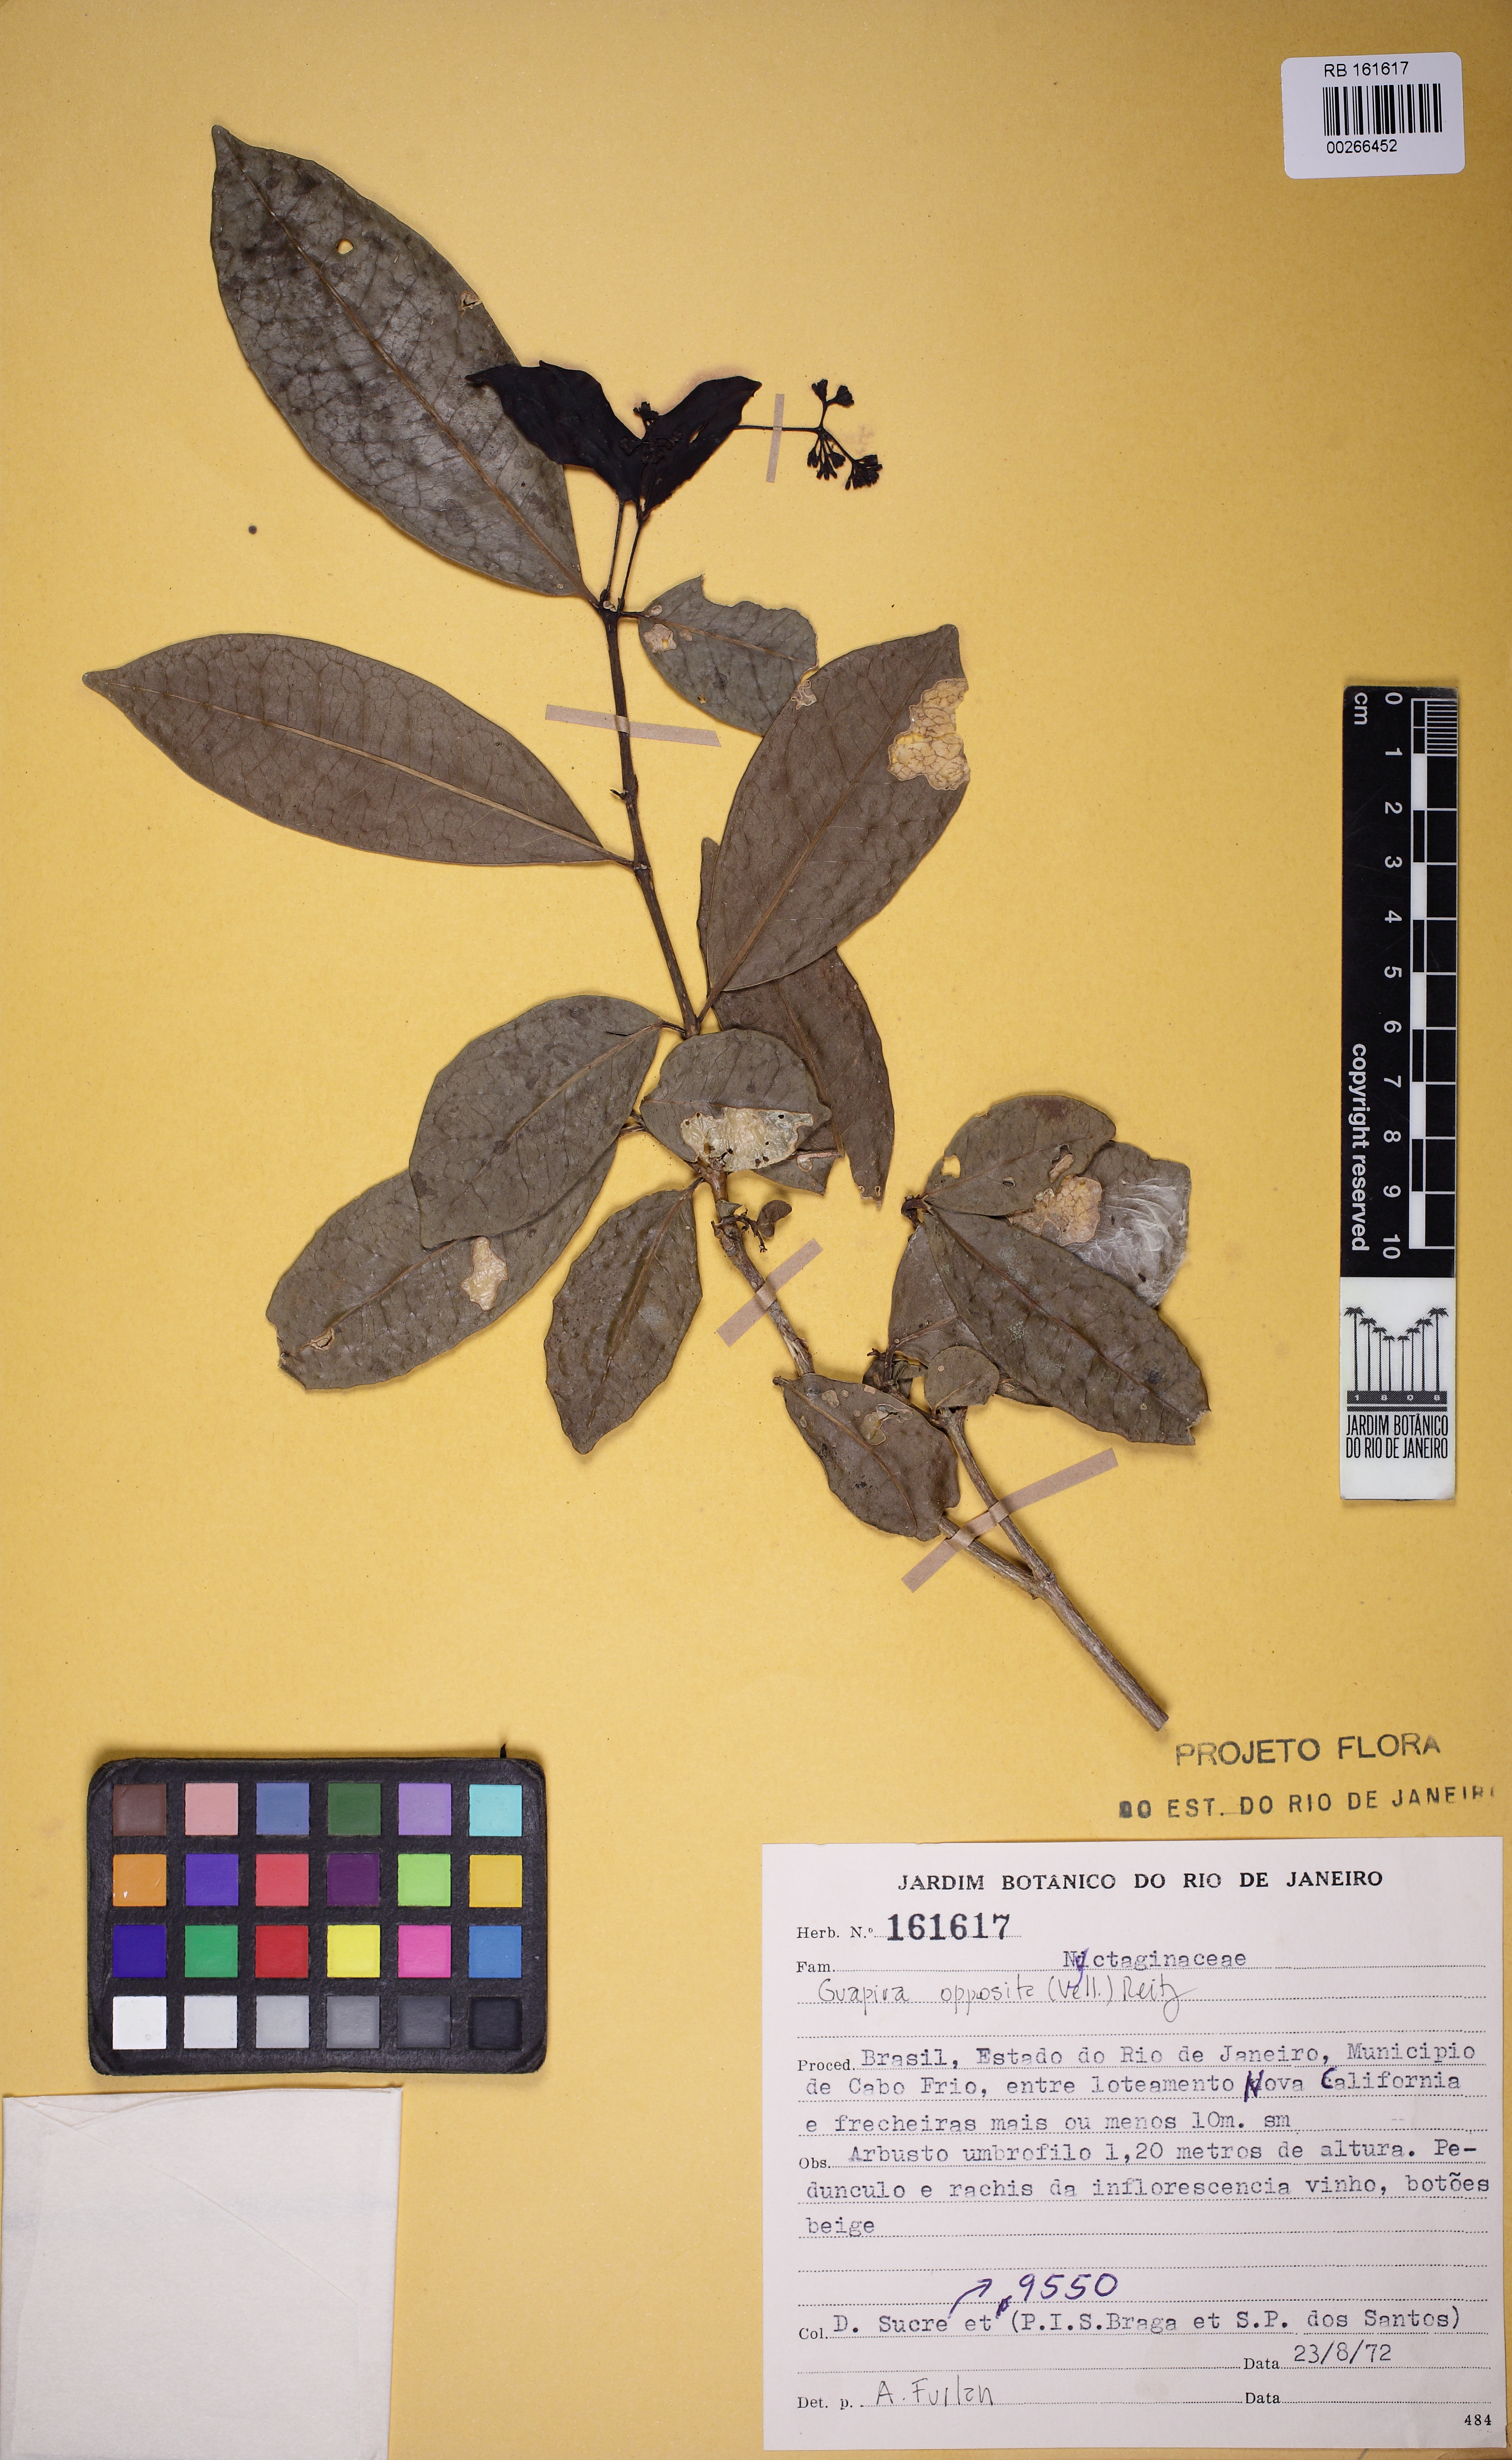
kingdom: Plantae
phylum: Tracheophyta
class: Magnoliopsida
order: Caryophyllales
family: Nyctaginaceae
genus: Guapira
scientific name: Guapira opposita
